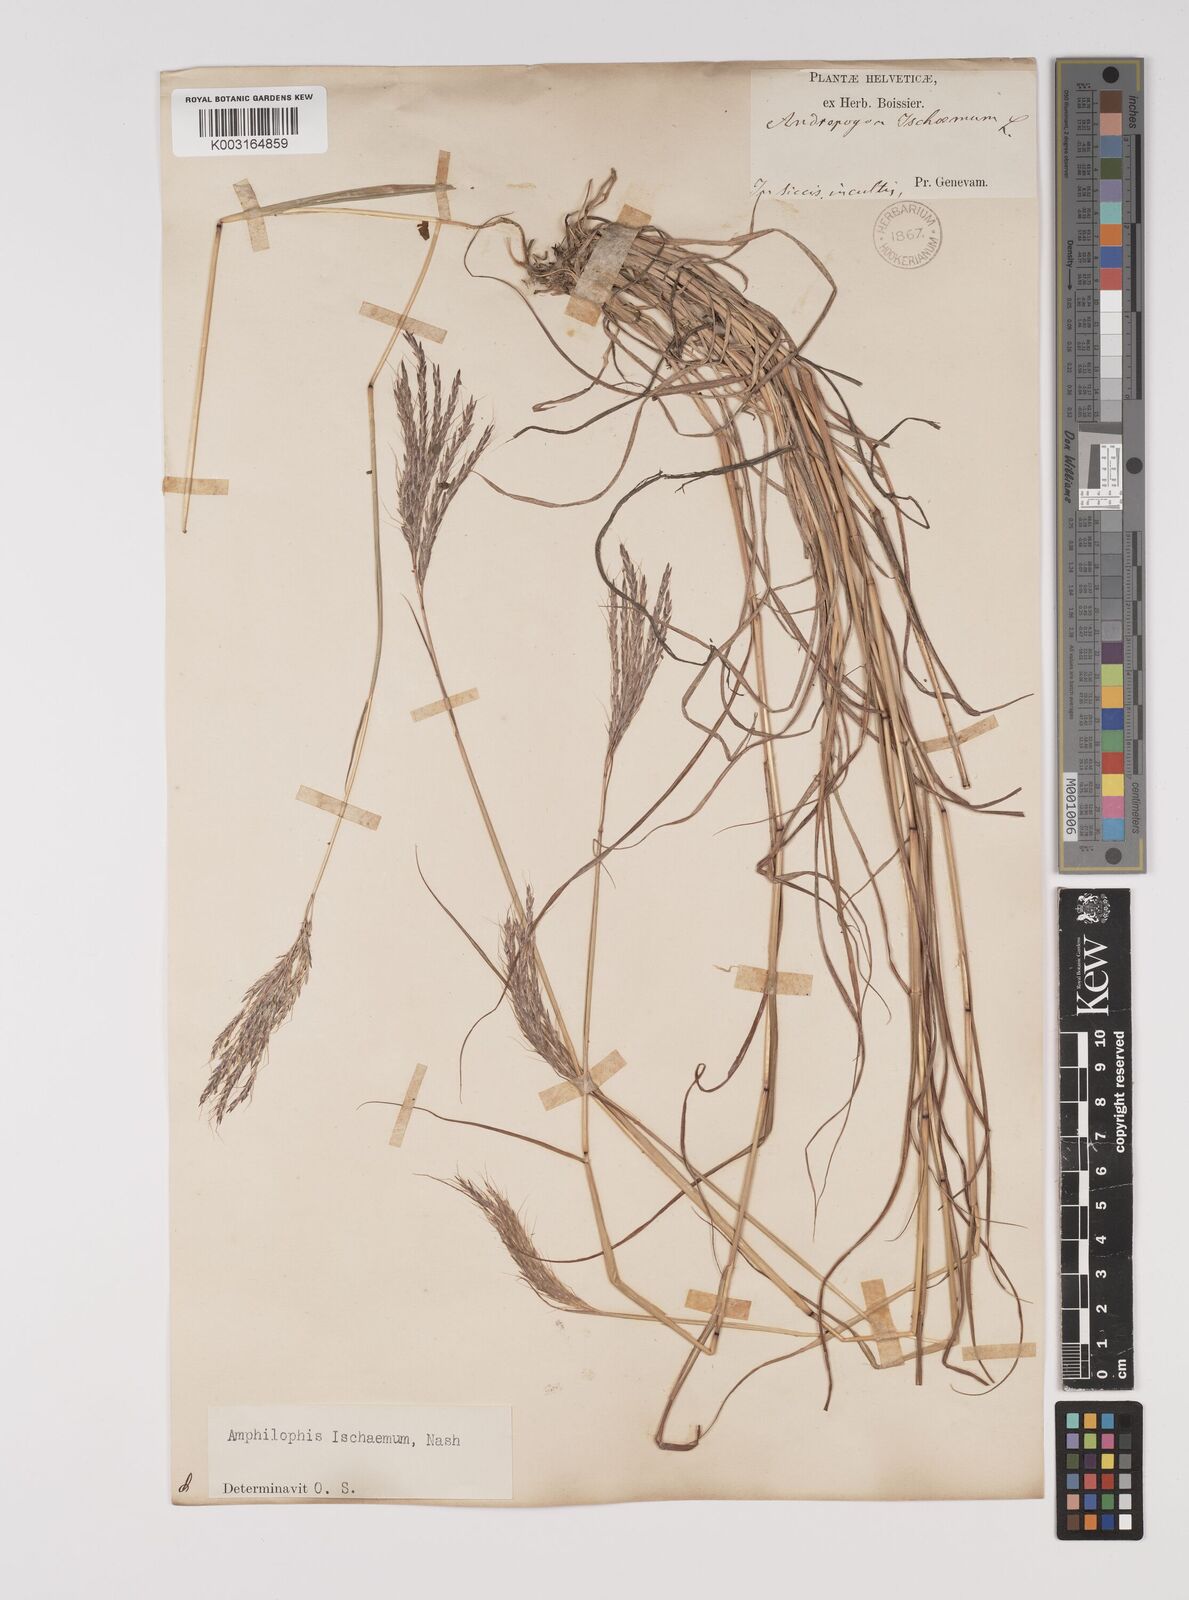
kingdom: Plantae
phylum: Tracheophyta
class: Liliopsida
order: Poales
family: Poaceae
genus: Bothriochloa
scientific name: Bothriochloa ischaemum
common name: Yellow bluestem
